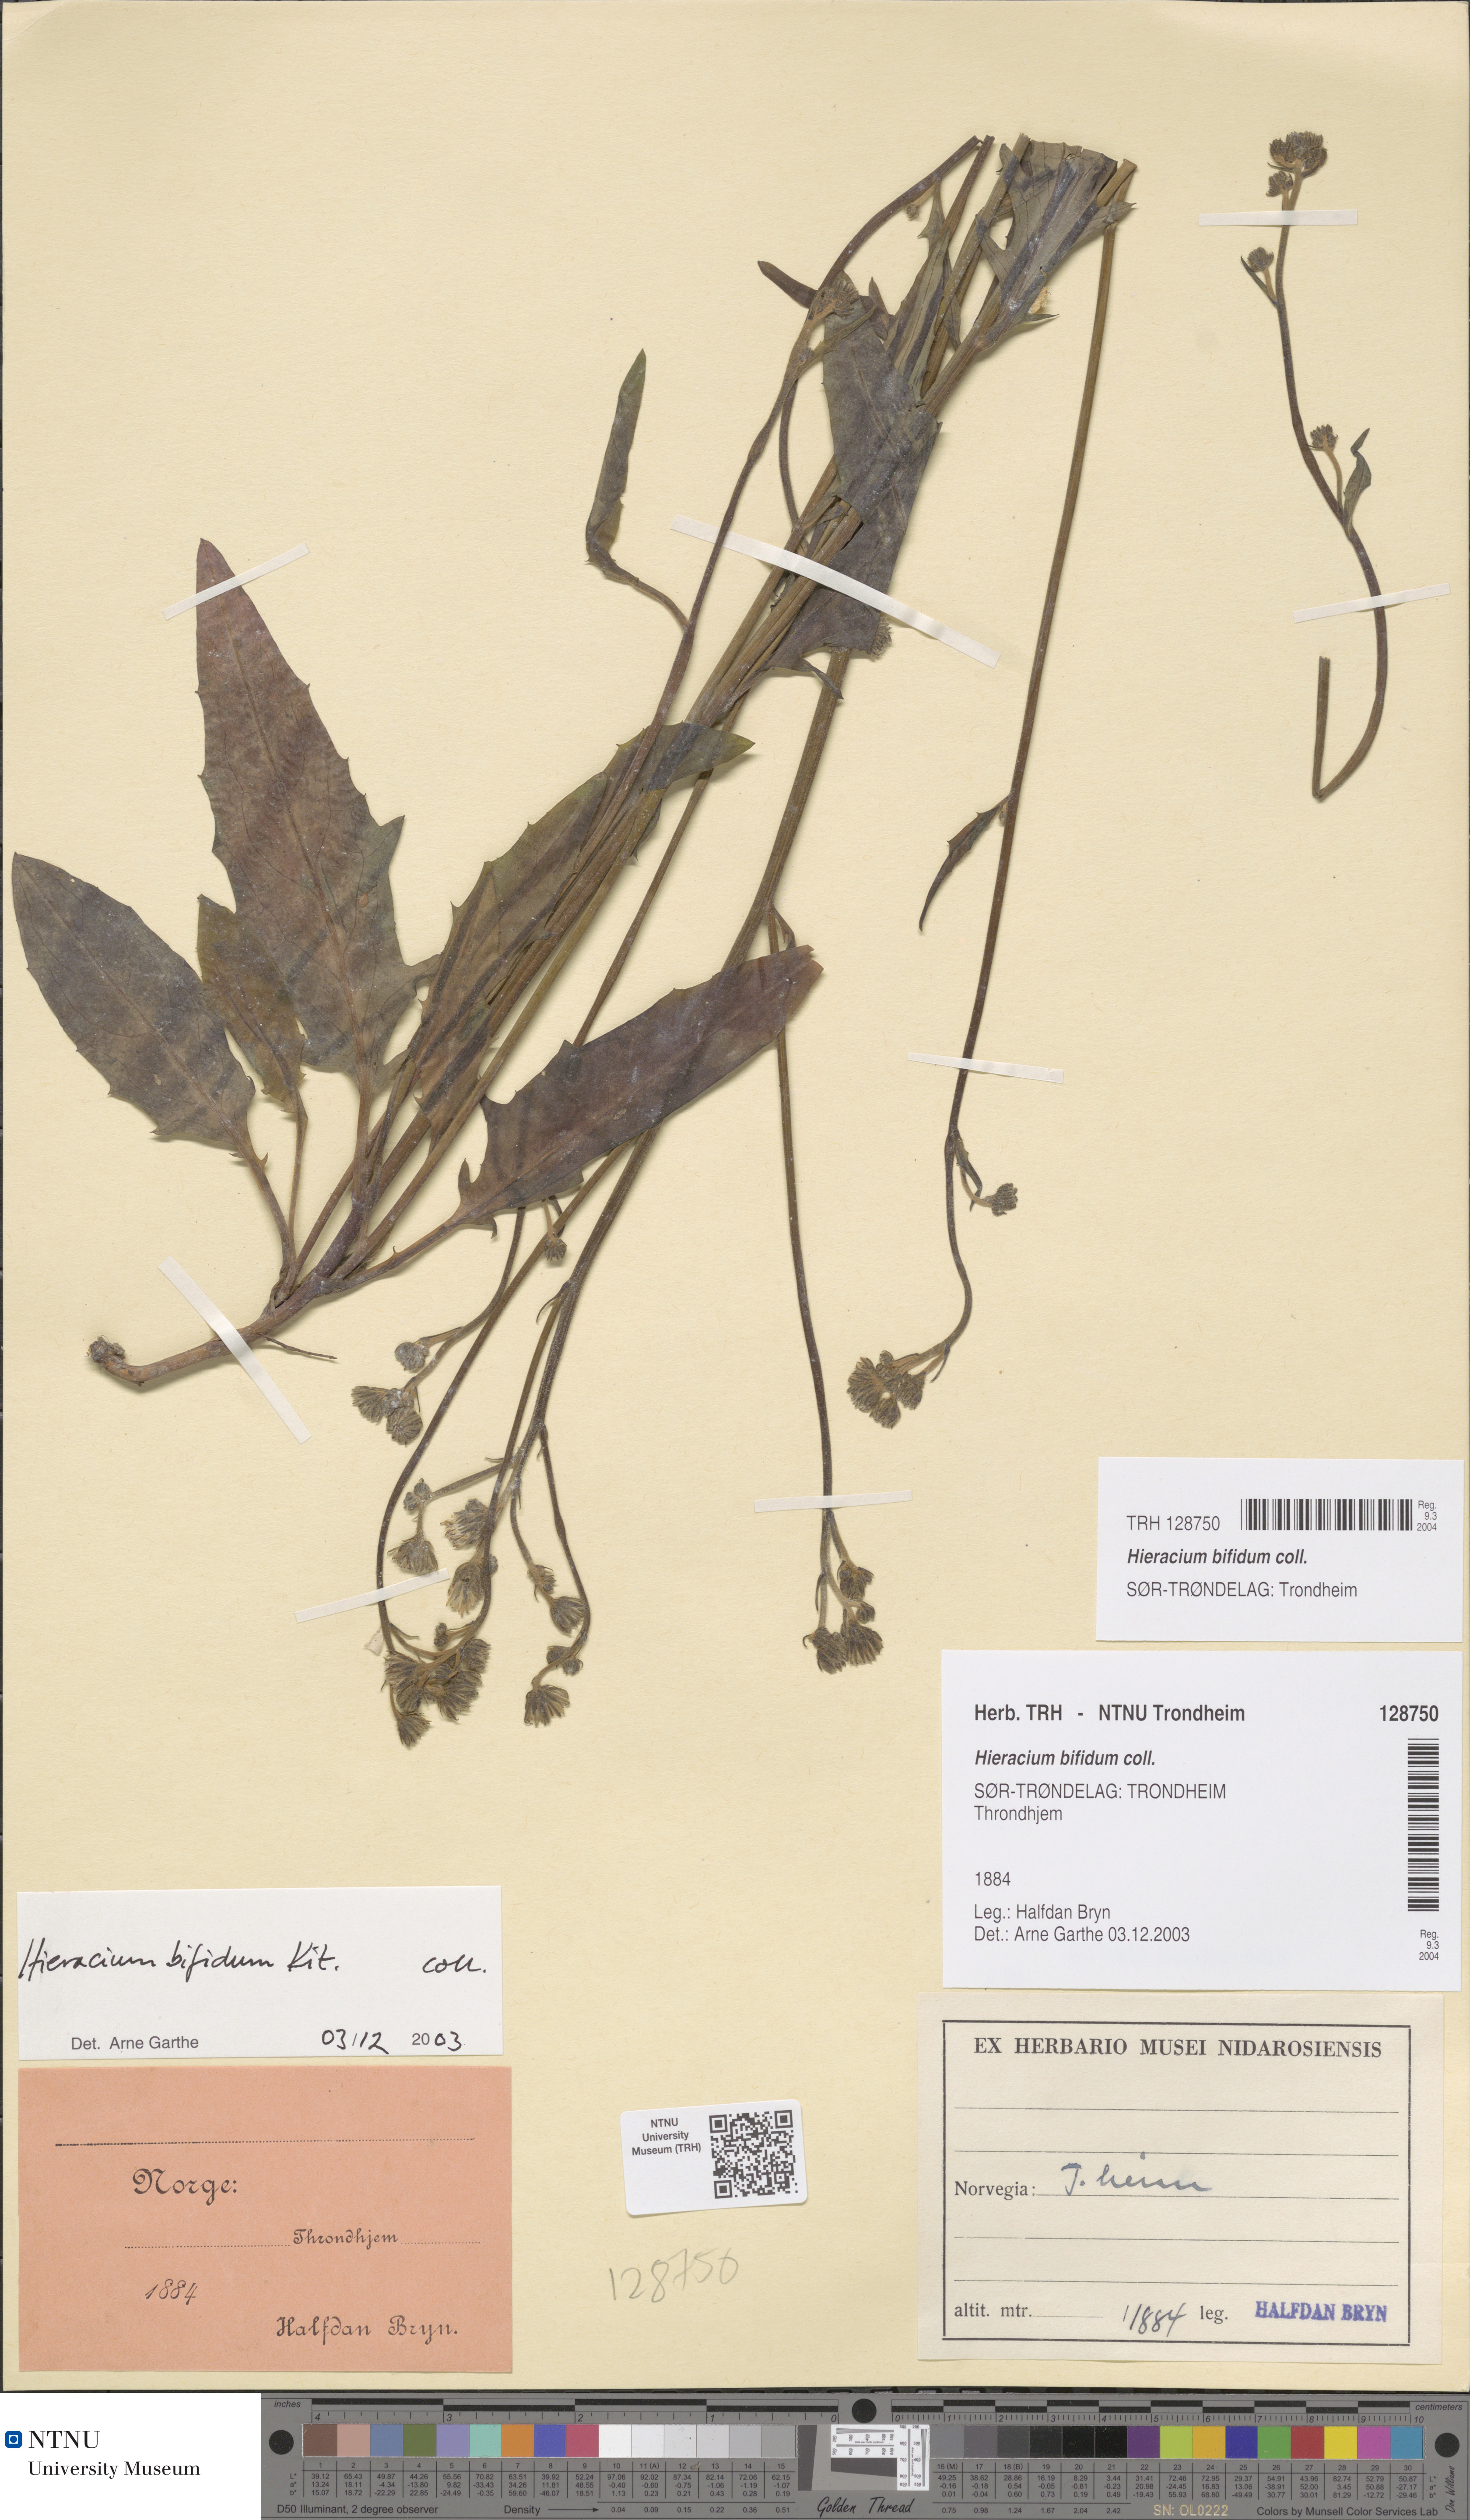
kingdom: Plantae
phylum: Tracheophyta
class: Magnoliopsida
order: Asterales
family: Asteraceae
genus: Hieracium
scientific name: Hieracium bifidum
